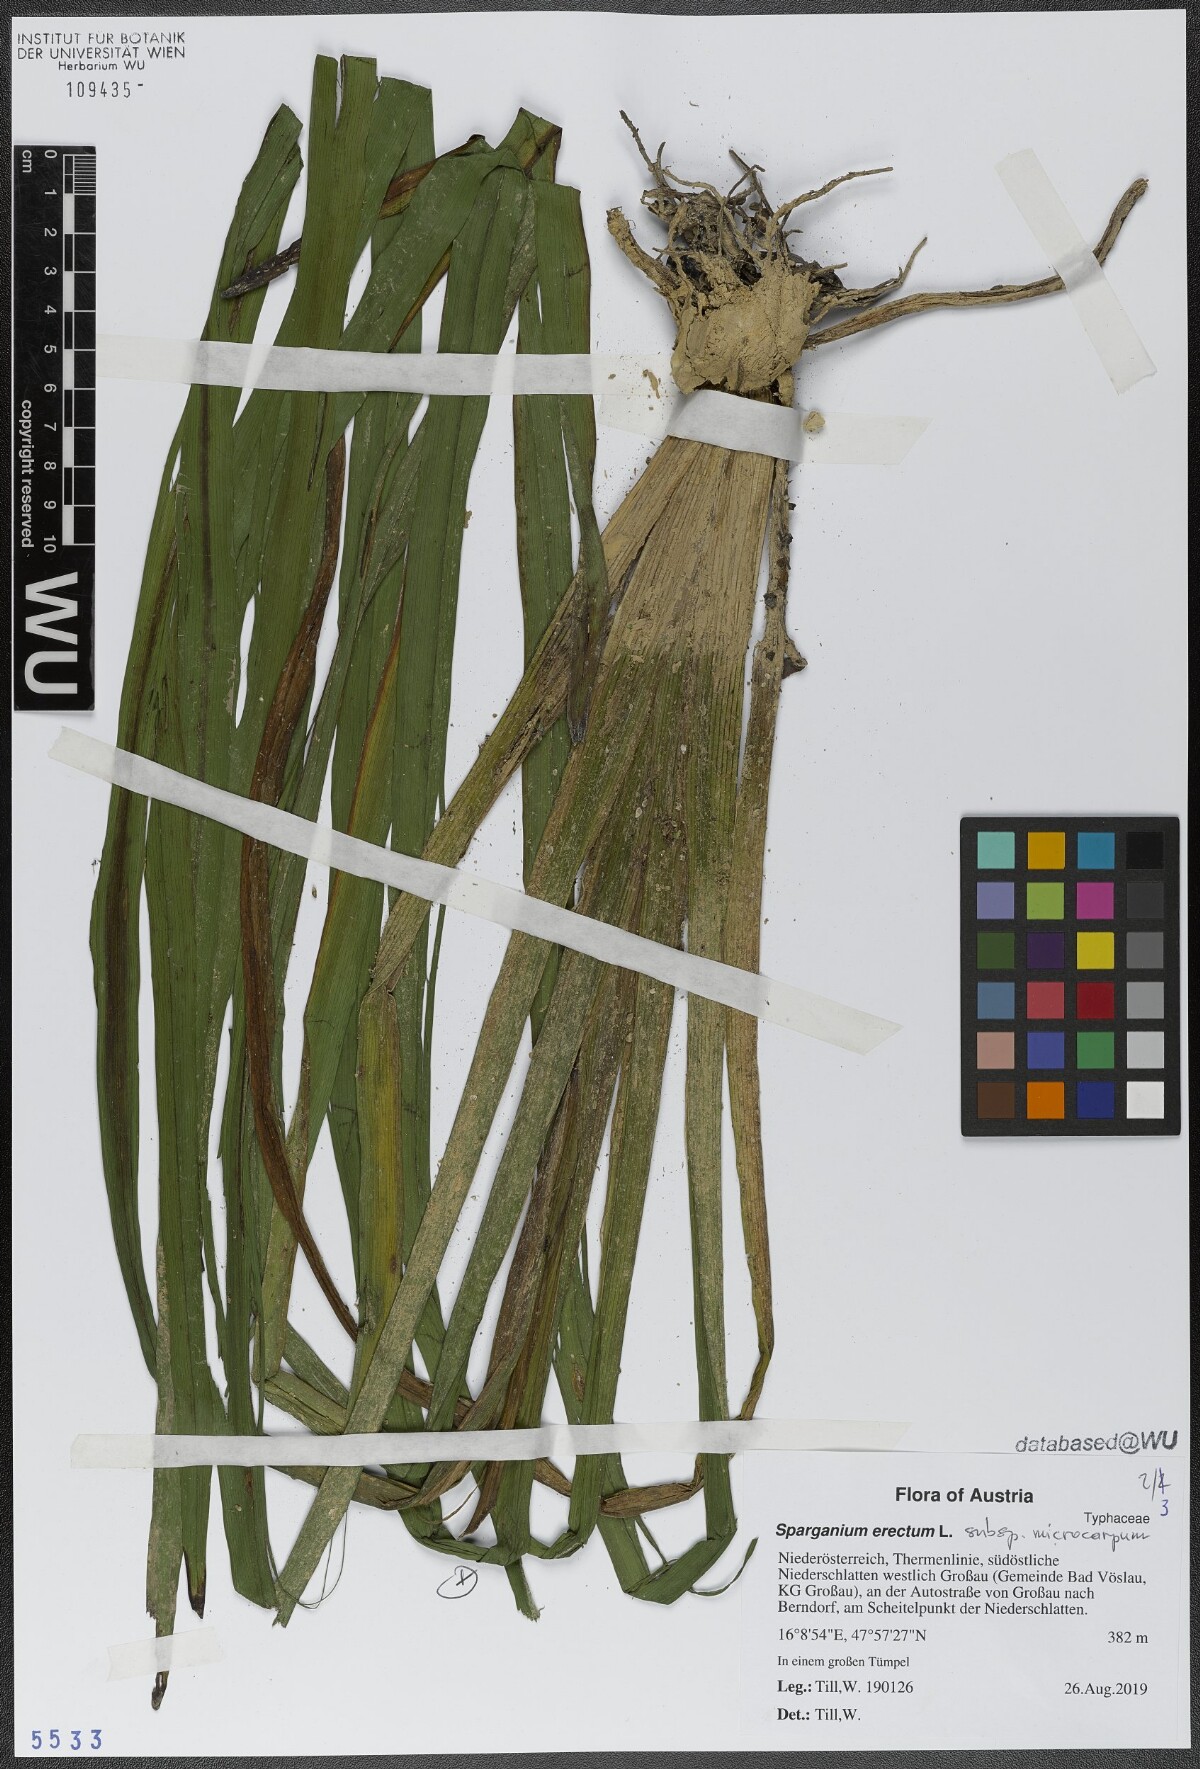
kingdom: Plantae
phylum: Tracheophyta
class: Liliopsida
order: Poales
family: Typhaceae
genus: Sparganium
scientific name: Sparganium erectum
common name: Branched bur-reed
